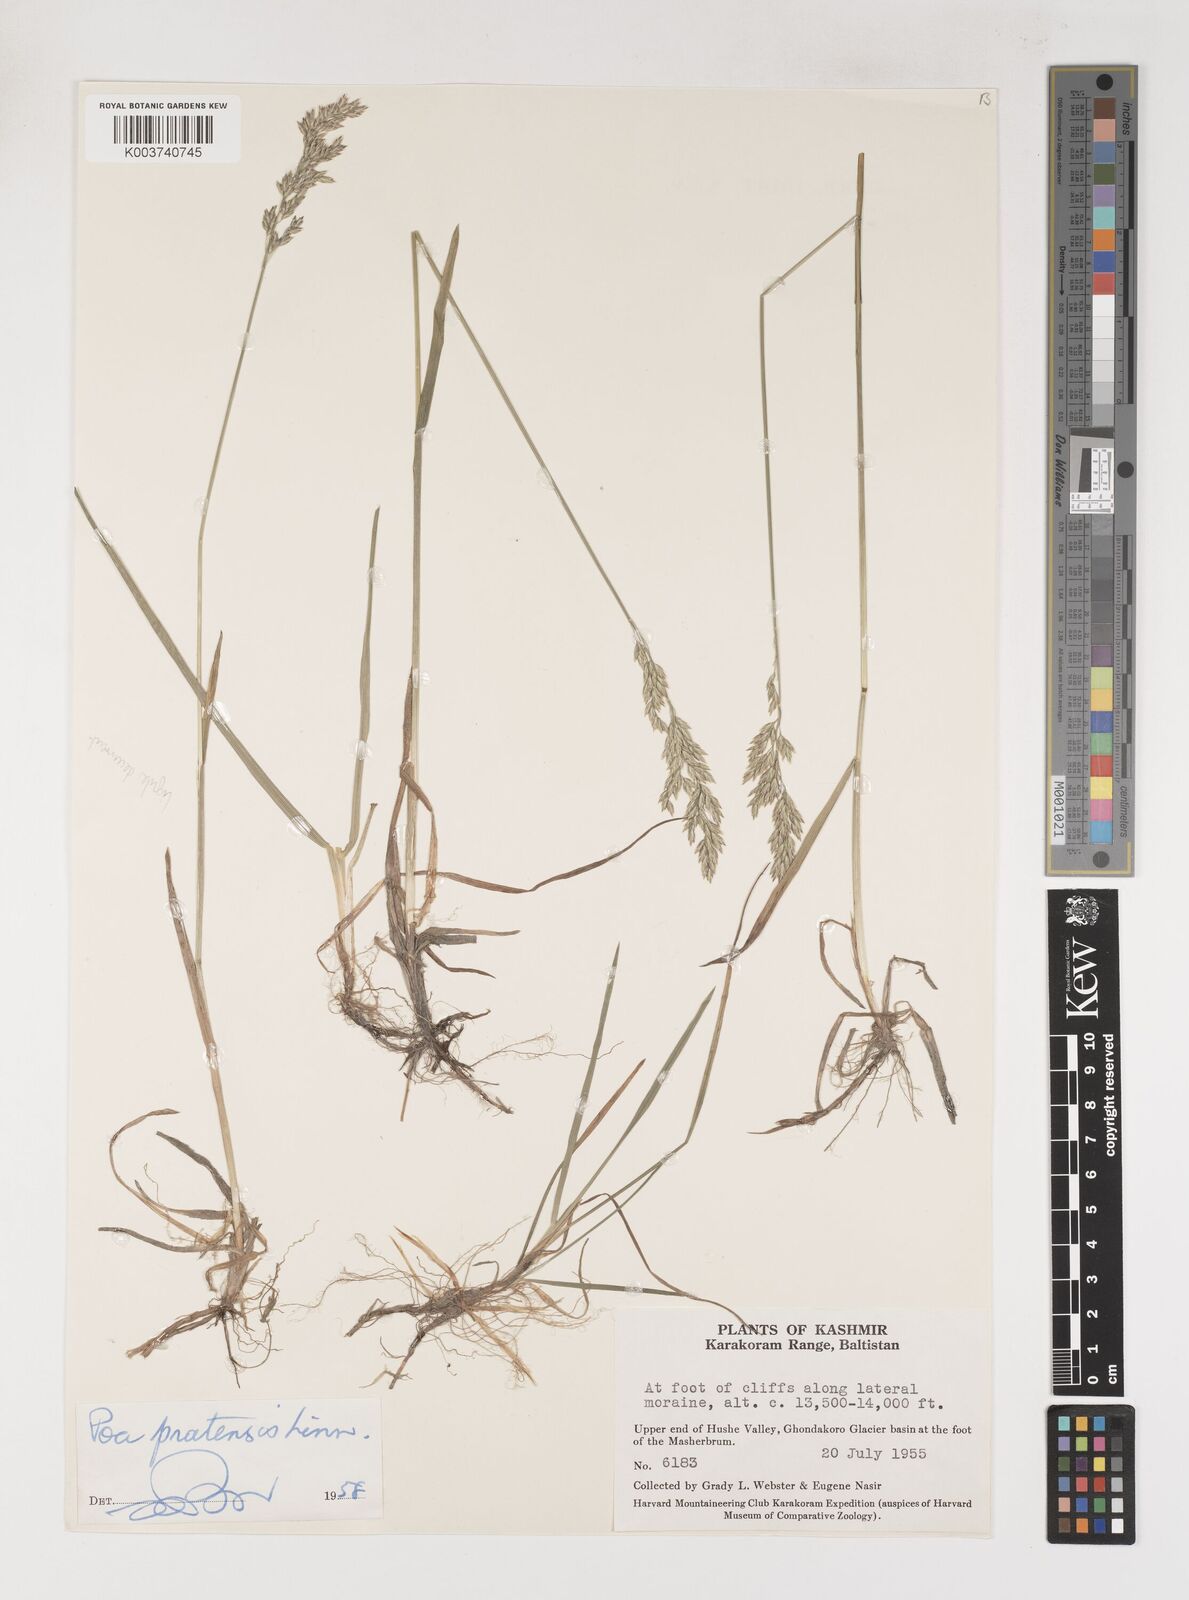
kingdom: Plantae
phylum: Tracheophyta
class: Liliopsida
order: Poales
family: Poaceae
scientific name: Poaceae
